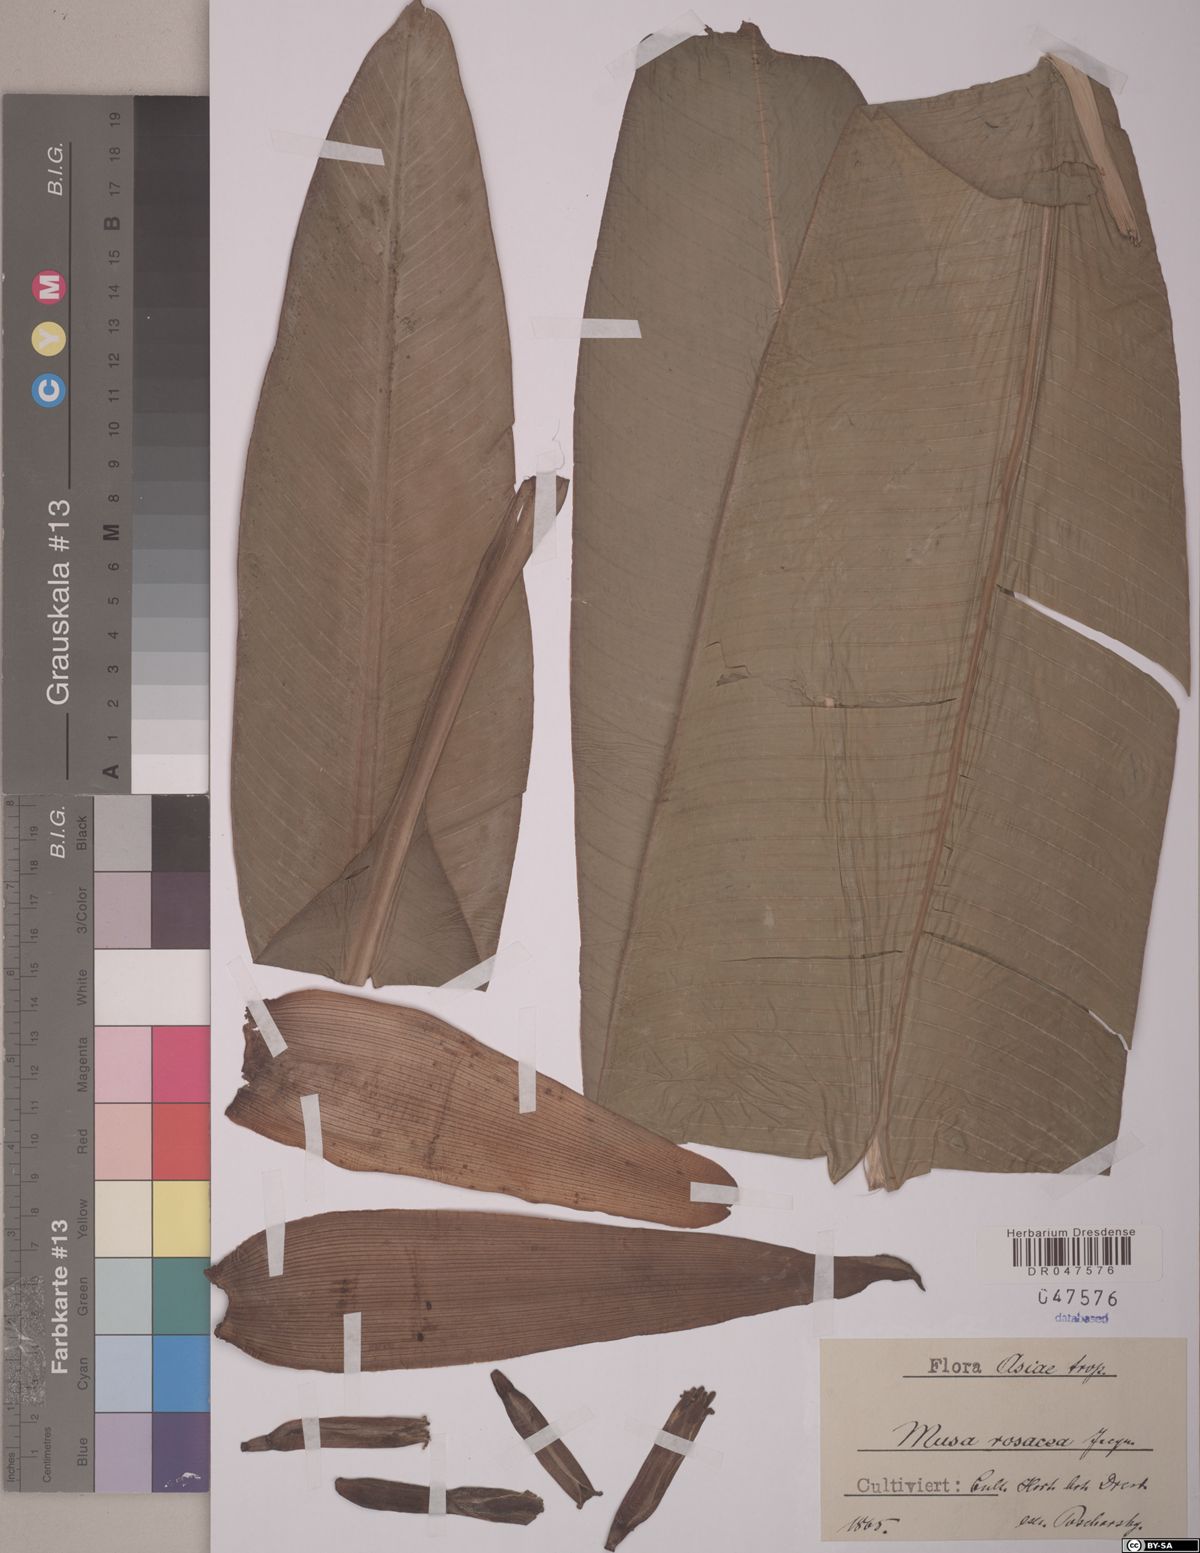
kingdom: Plantae
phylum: Tracheophyta
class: Liliopsida
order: Zingiberales
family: Musaceae
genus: Musa
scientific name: Musa balbisiana
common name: Plantain
